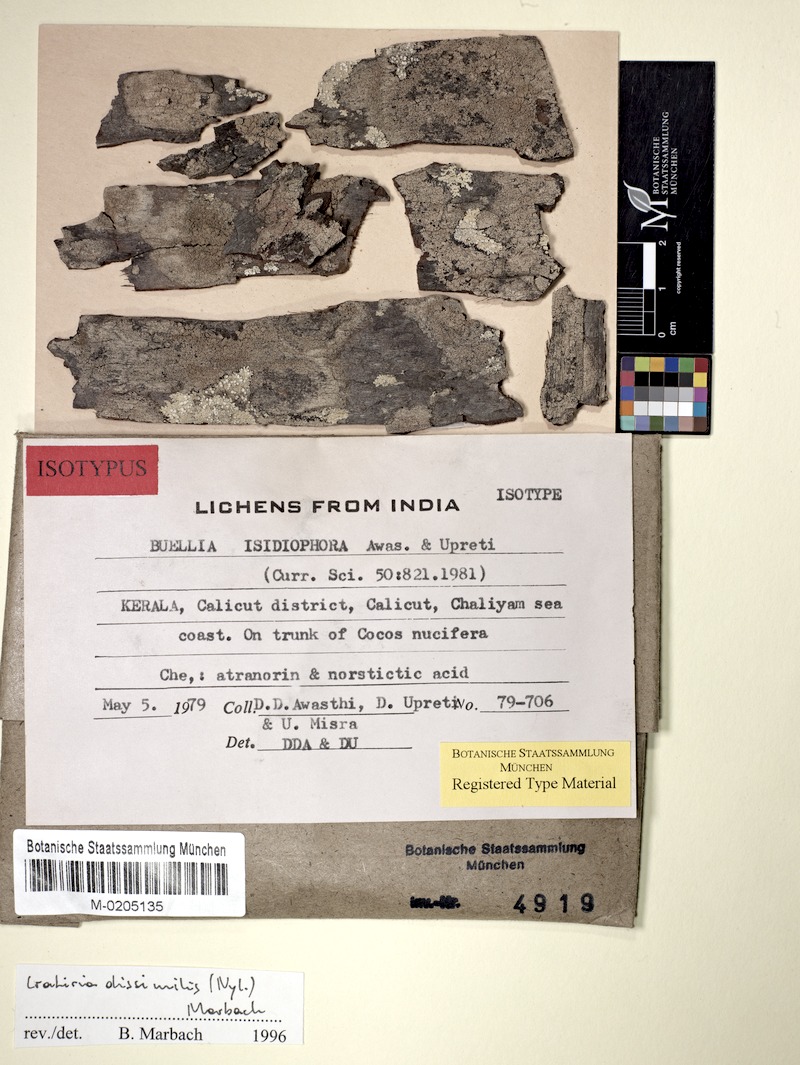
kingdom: Fungi
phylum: Ascomycota
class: Lecanoromycetes
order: Caliciales
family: Caliciaceae
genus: Cratiria
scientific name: Cratiria dissimilis
